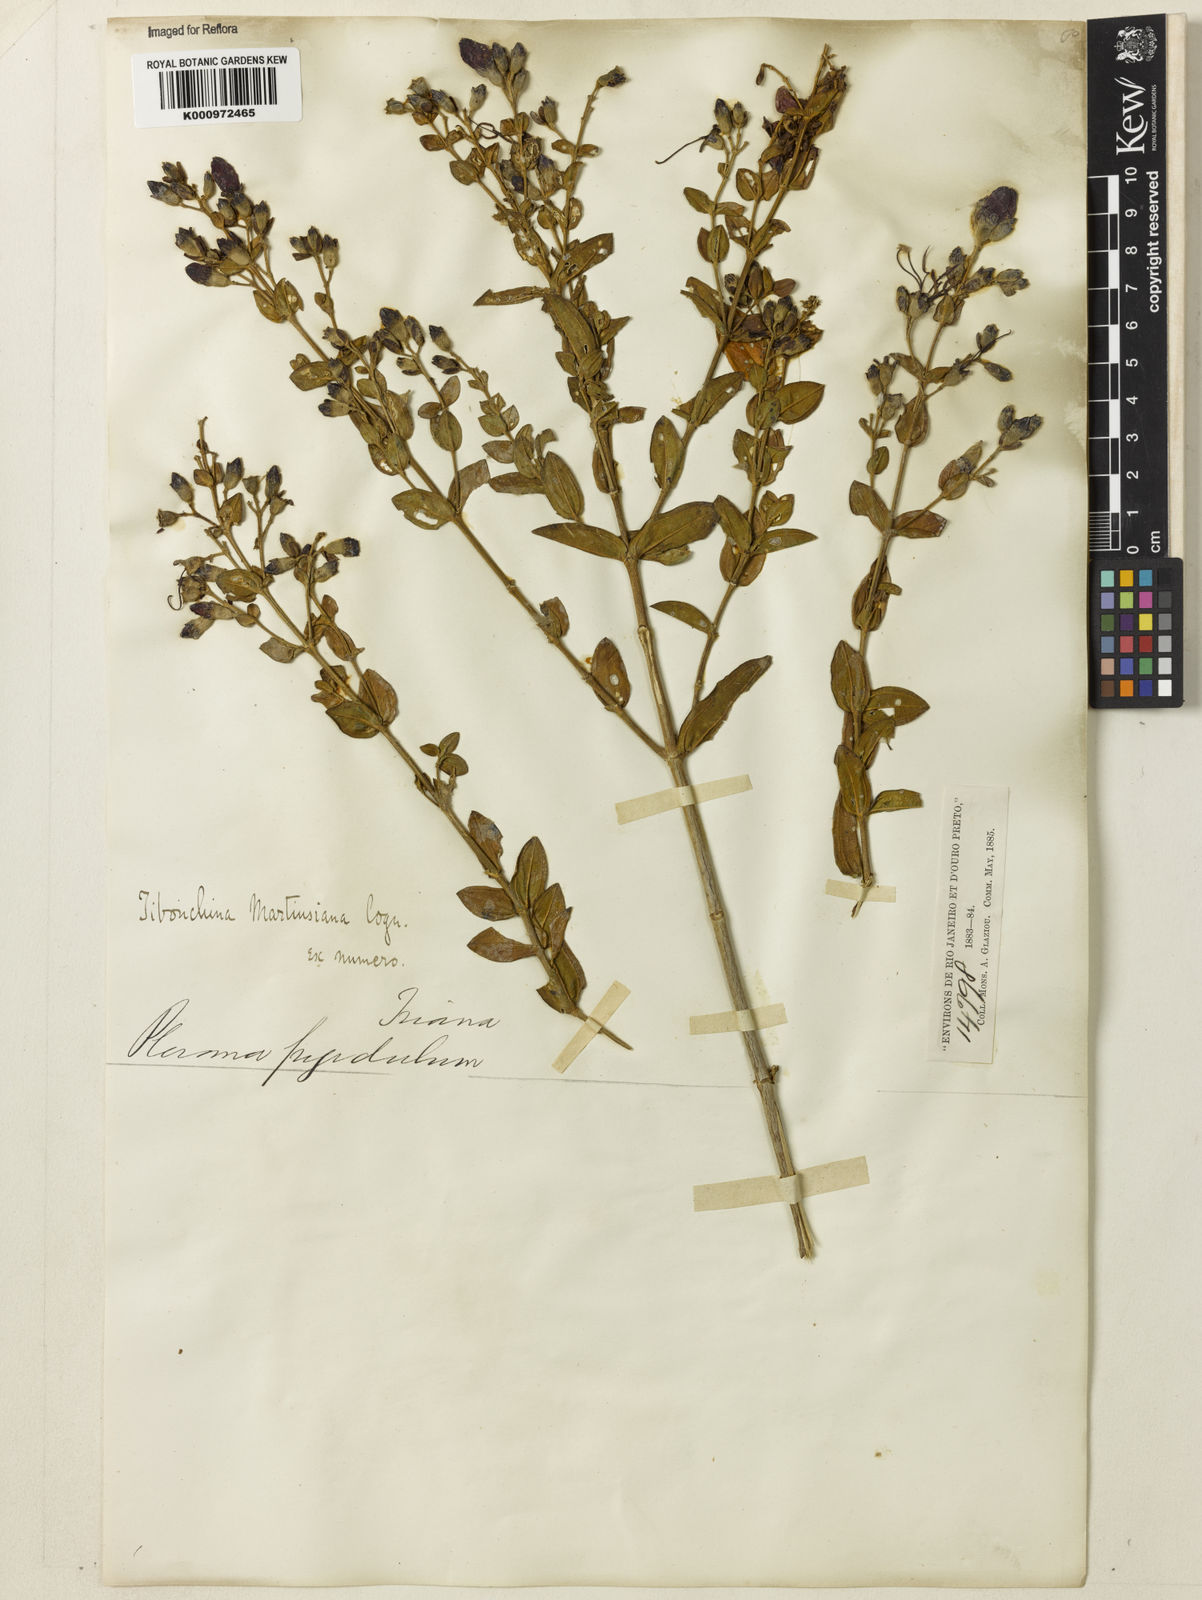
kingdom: Plantae
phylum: Tracheophyta
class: Magnoliopsida
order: Myrtales
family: Melastomataceae
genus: Pleroma
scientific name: Pleroma martiusianum
